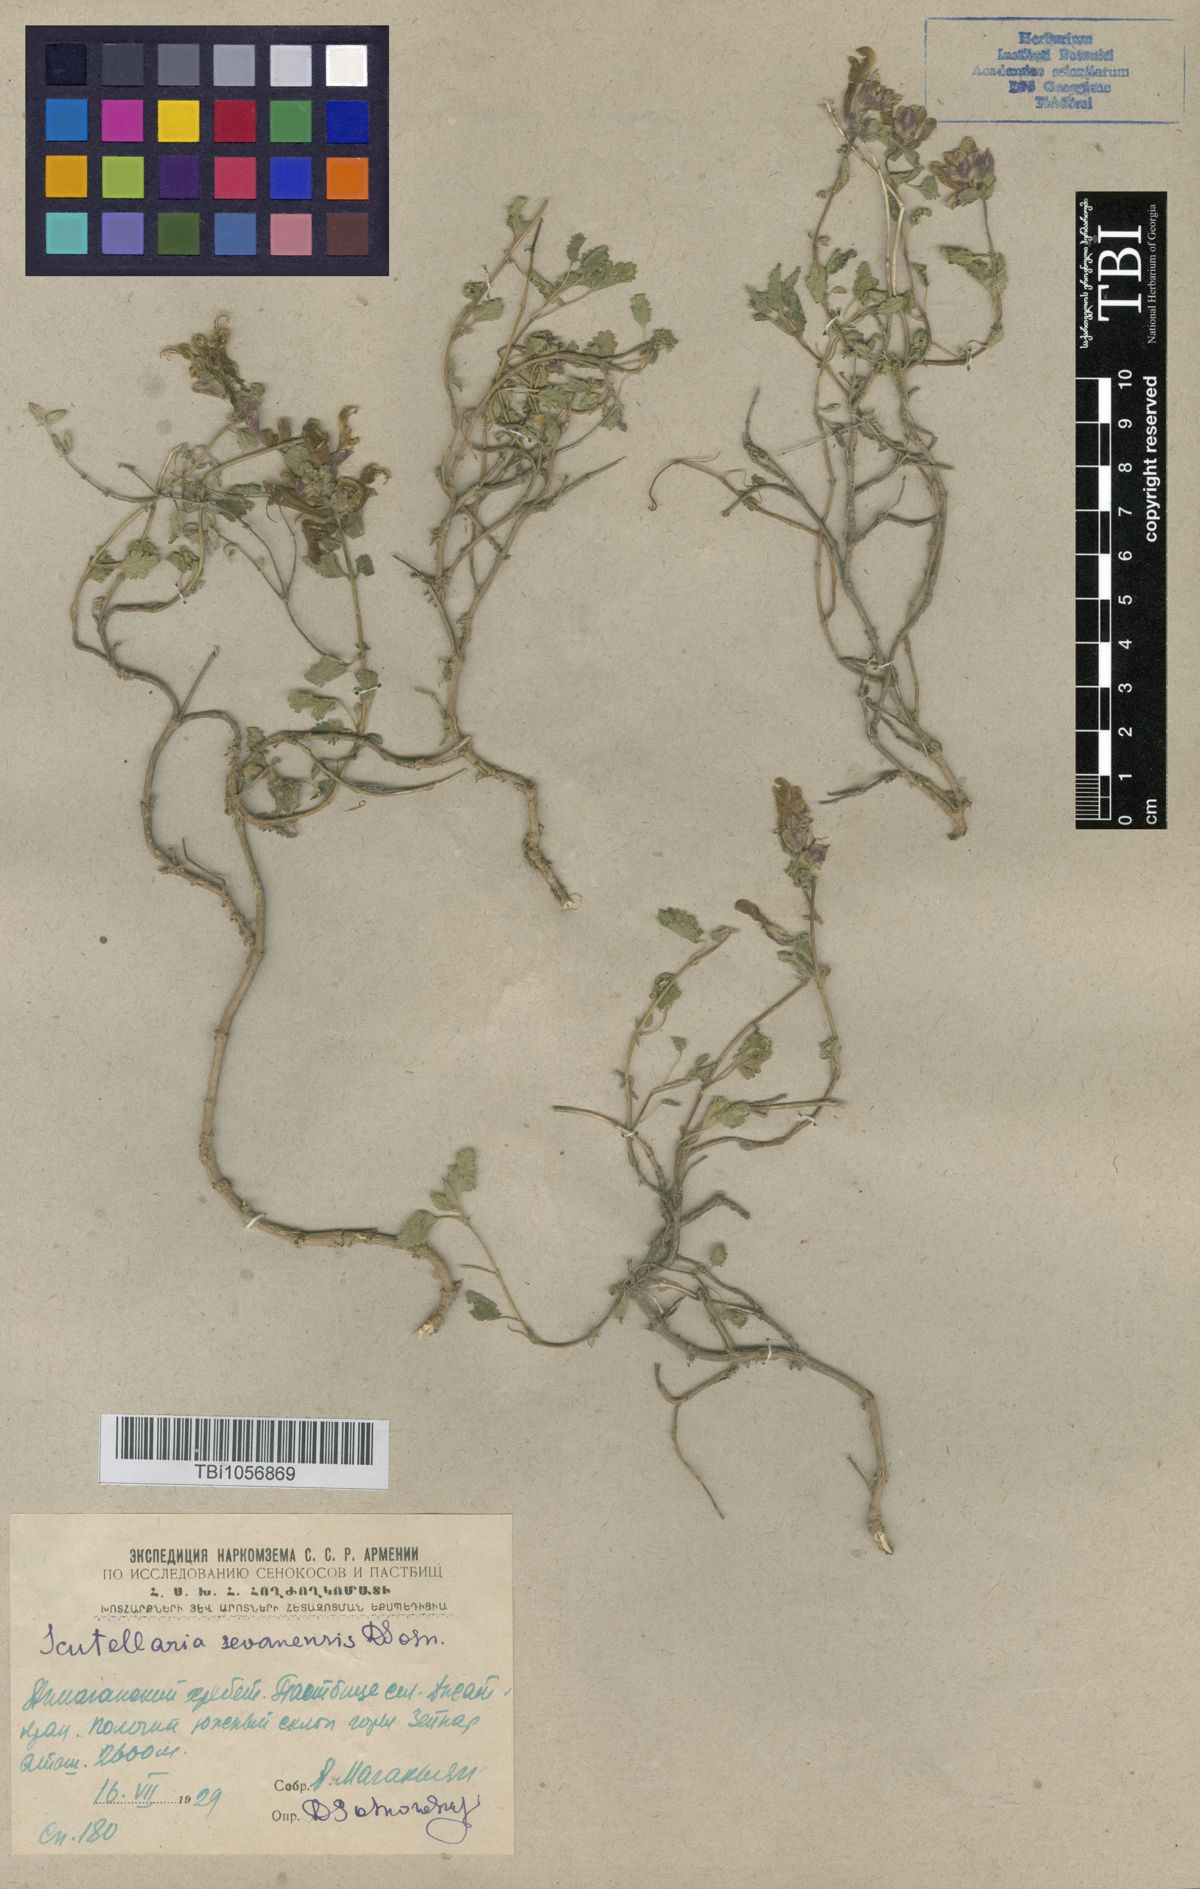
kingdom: Plantae
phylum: Tracheophyta
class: Magnoliopsida
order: Lamiales
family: Lamiaceae
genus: Scutellaria
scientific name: Scutellaria sevanensis
